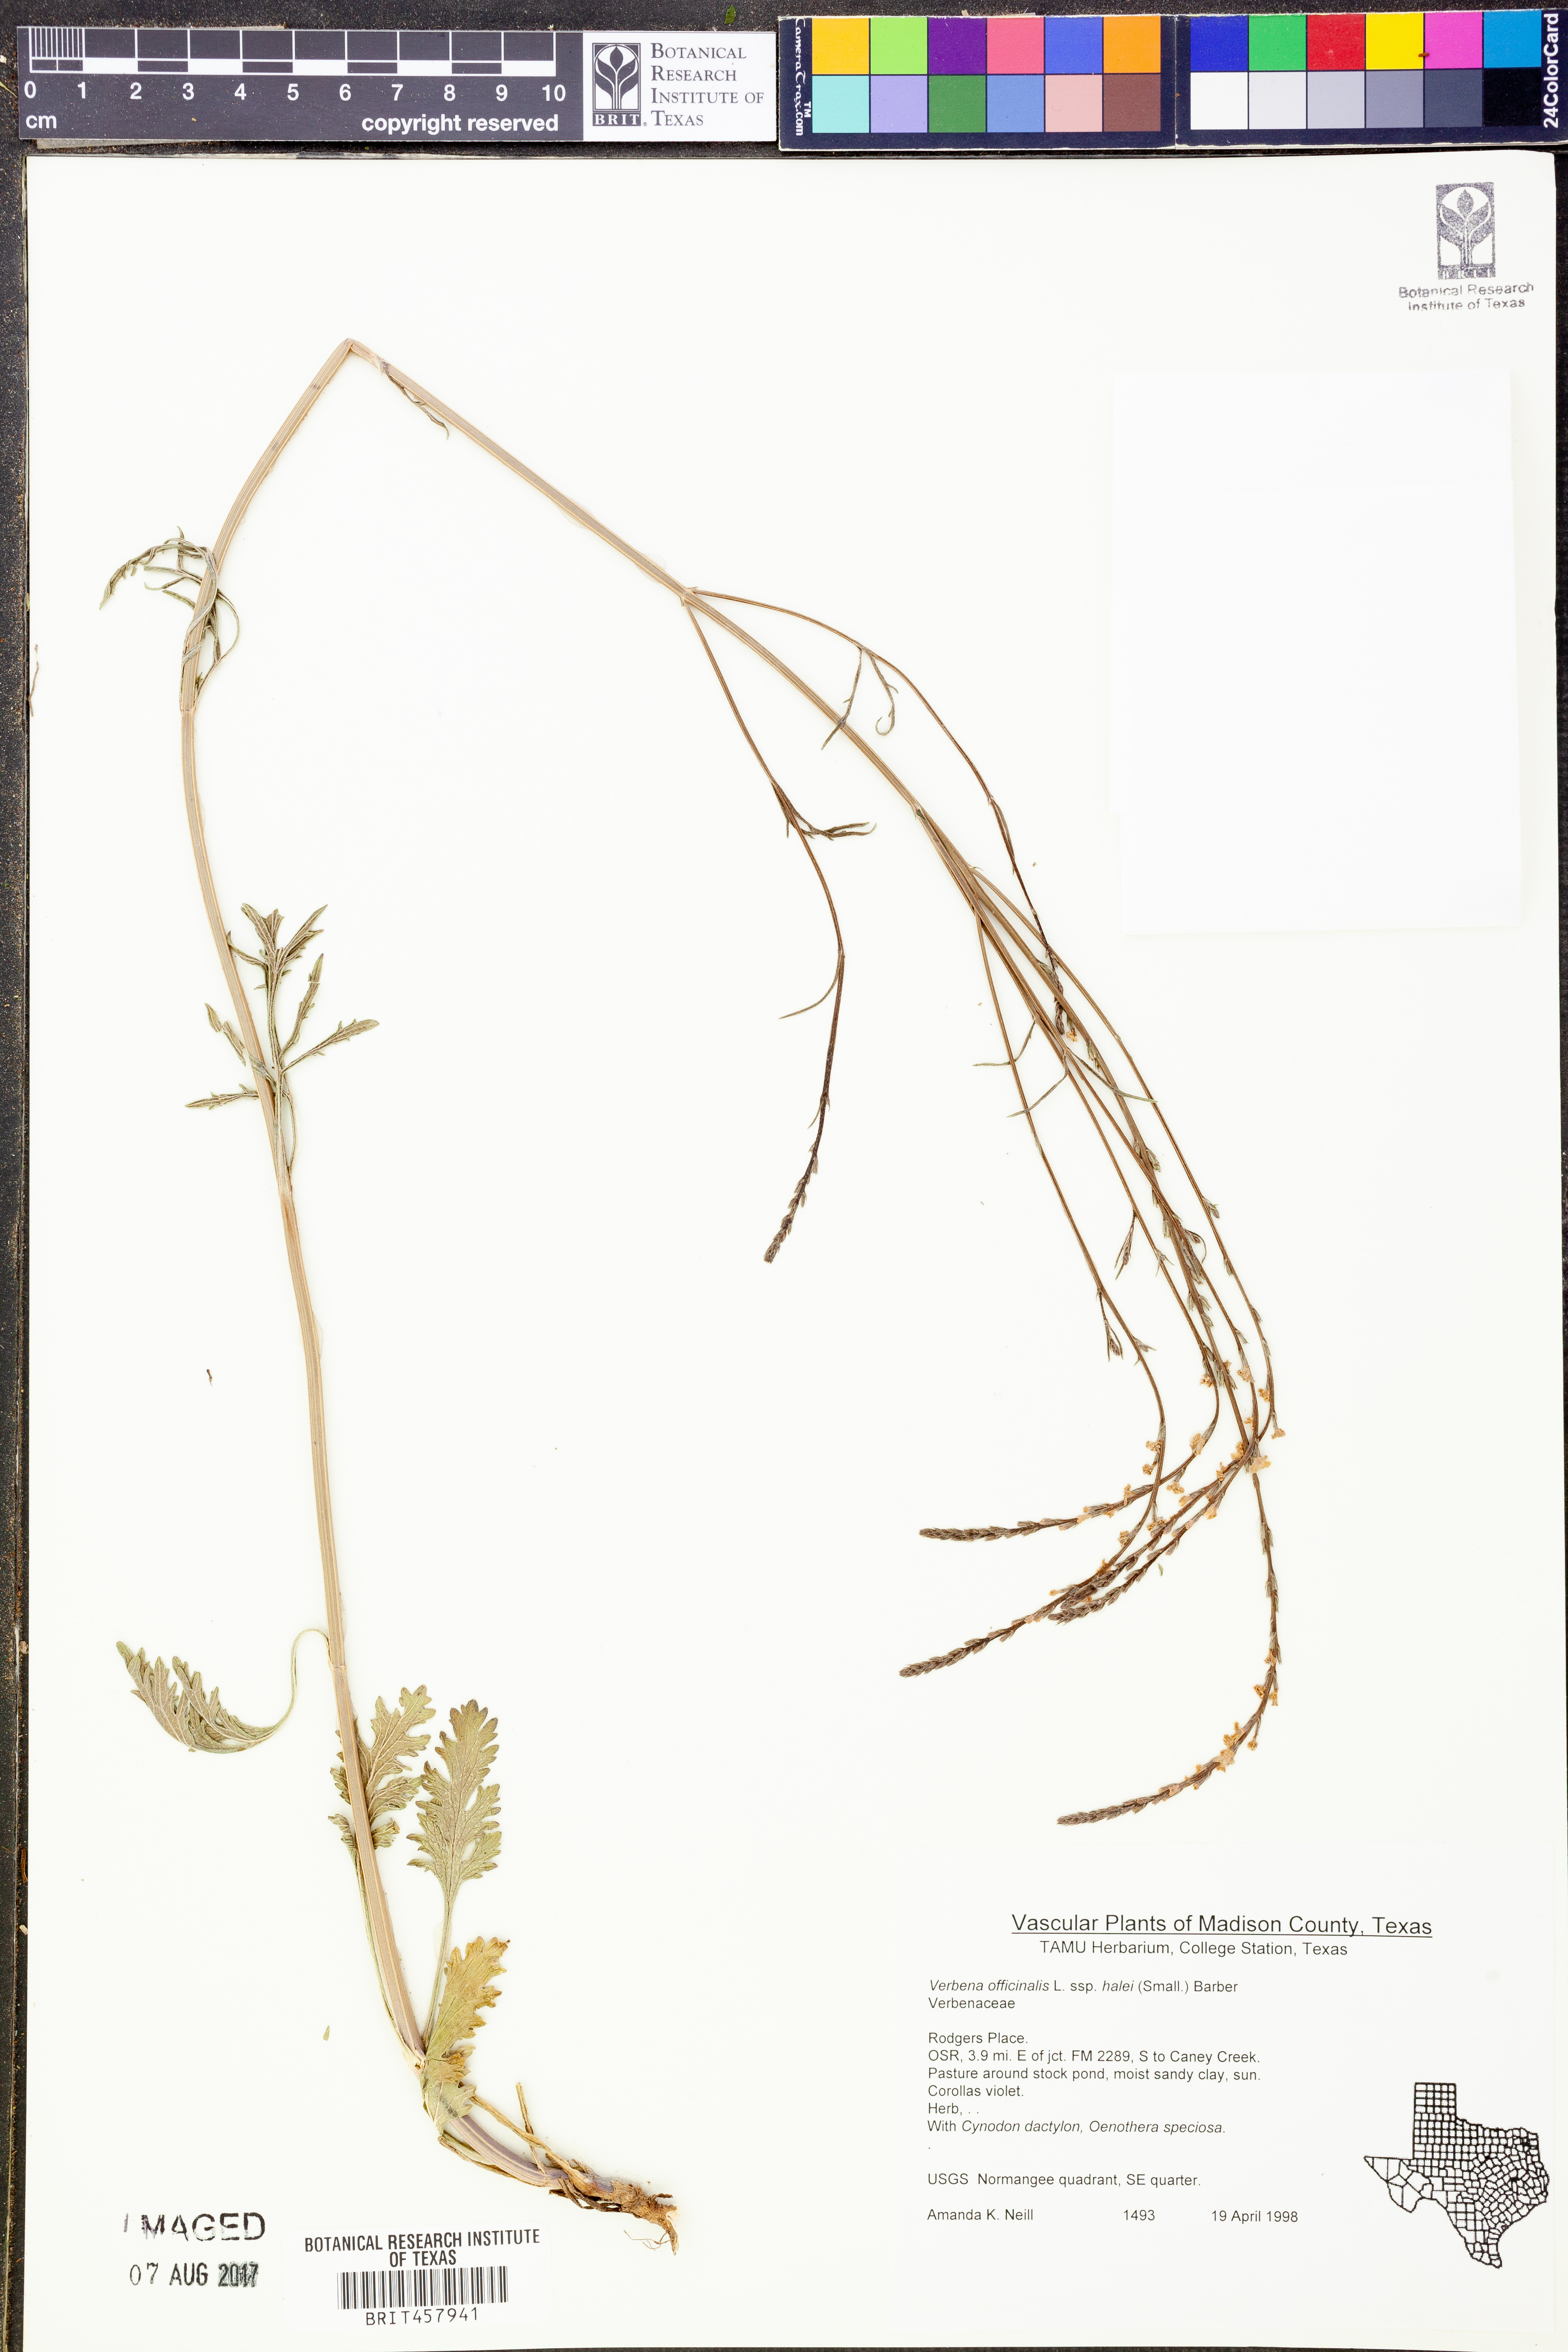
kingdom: Plantae
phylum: Tracheophyta
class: Magnoliopsida
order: Lamiales
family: Verbenaceae
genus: Verbena
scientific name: Verbena halei
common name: Texas vervain
